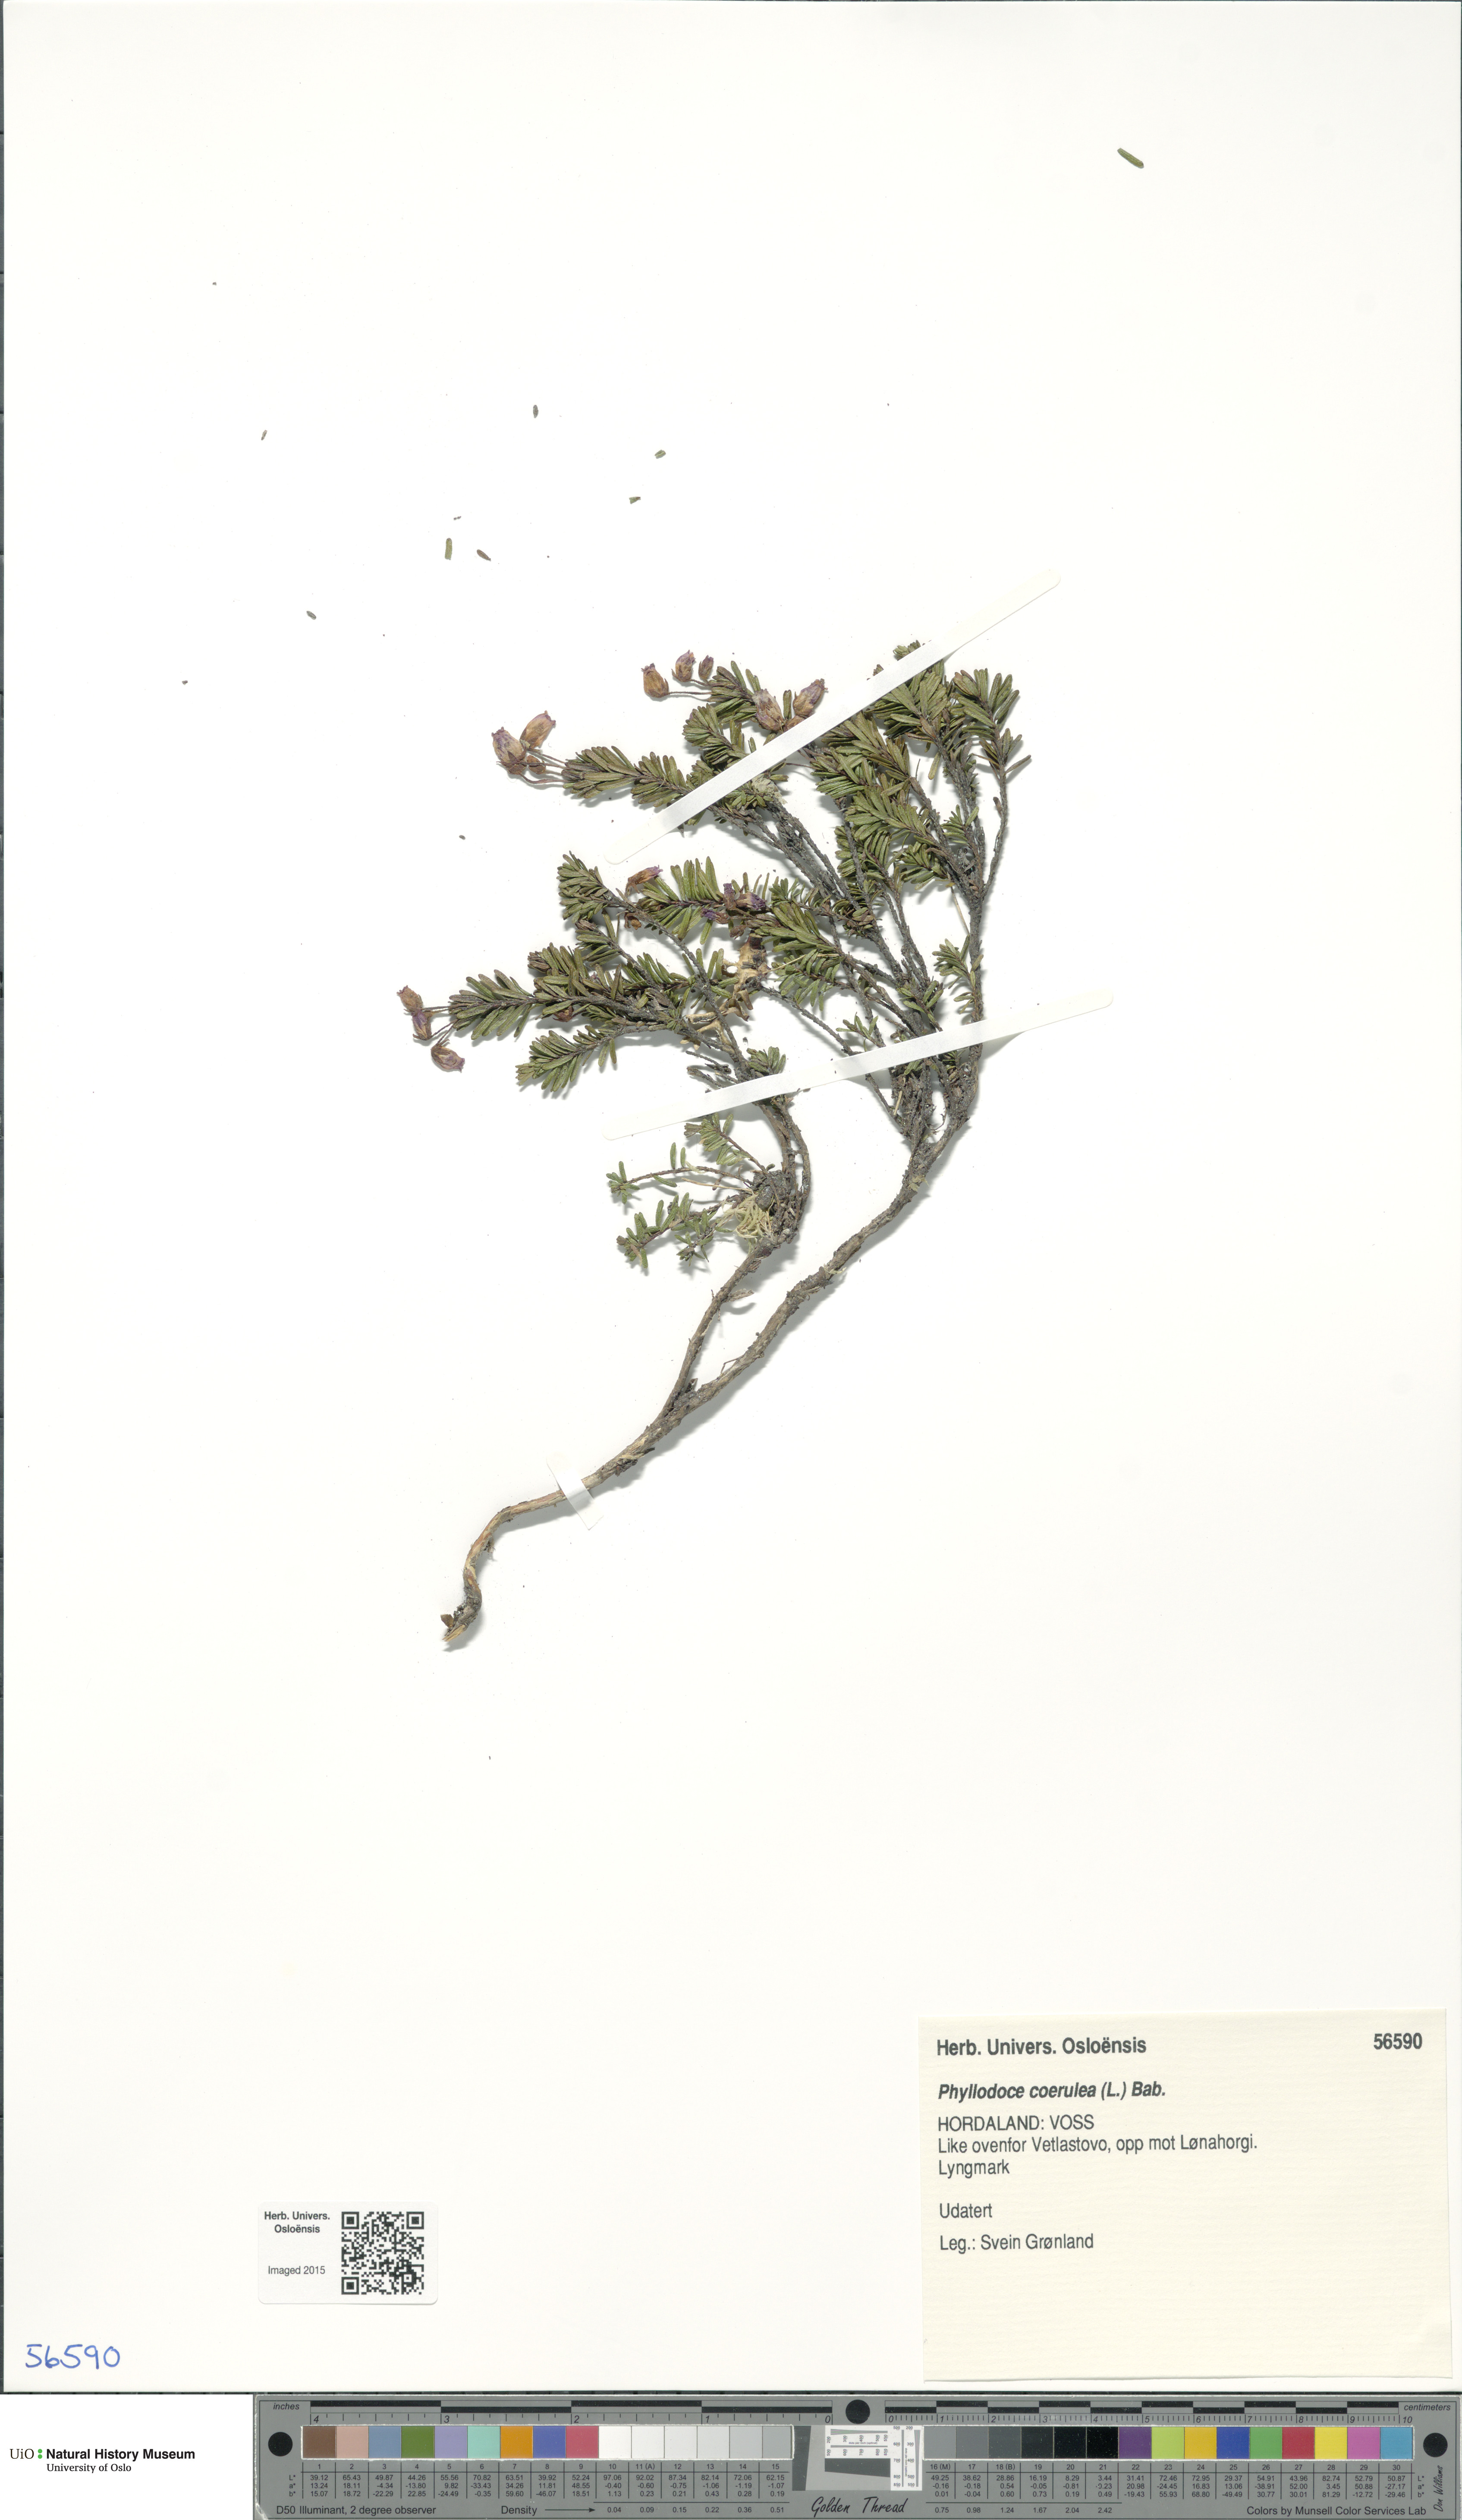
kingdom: Plantae
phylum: Tracheophyta
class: Magnoliopsida
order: Ericales
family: Ericaceae
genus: Phyllodoce
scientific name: Phyllodoce caerulea
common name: Blue heath
